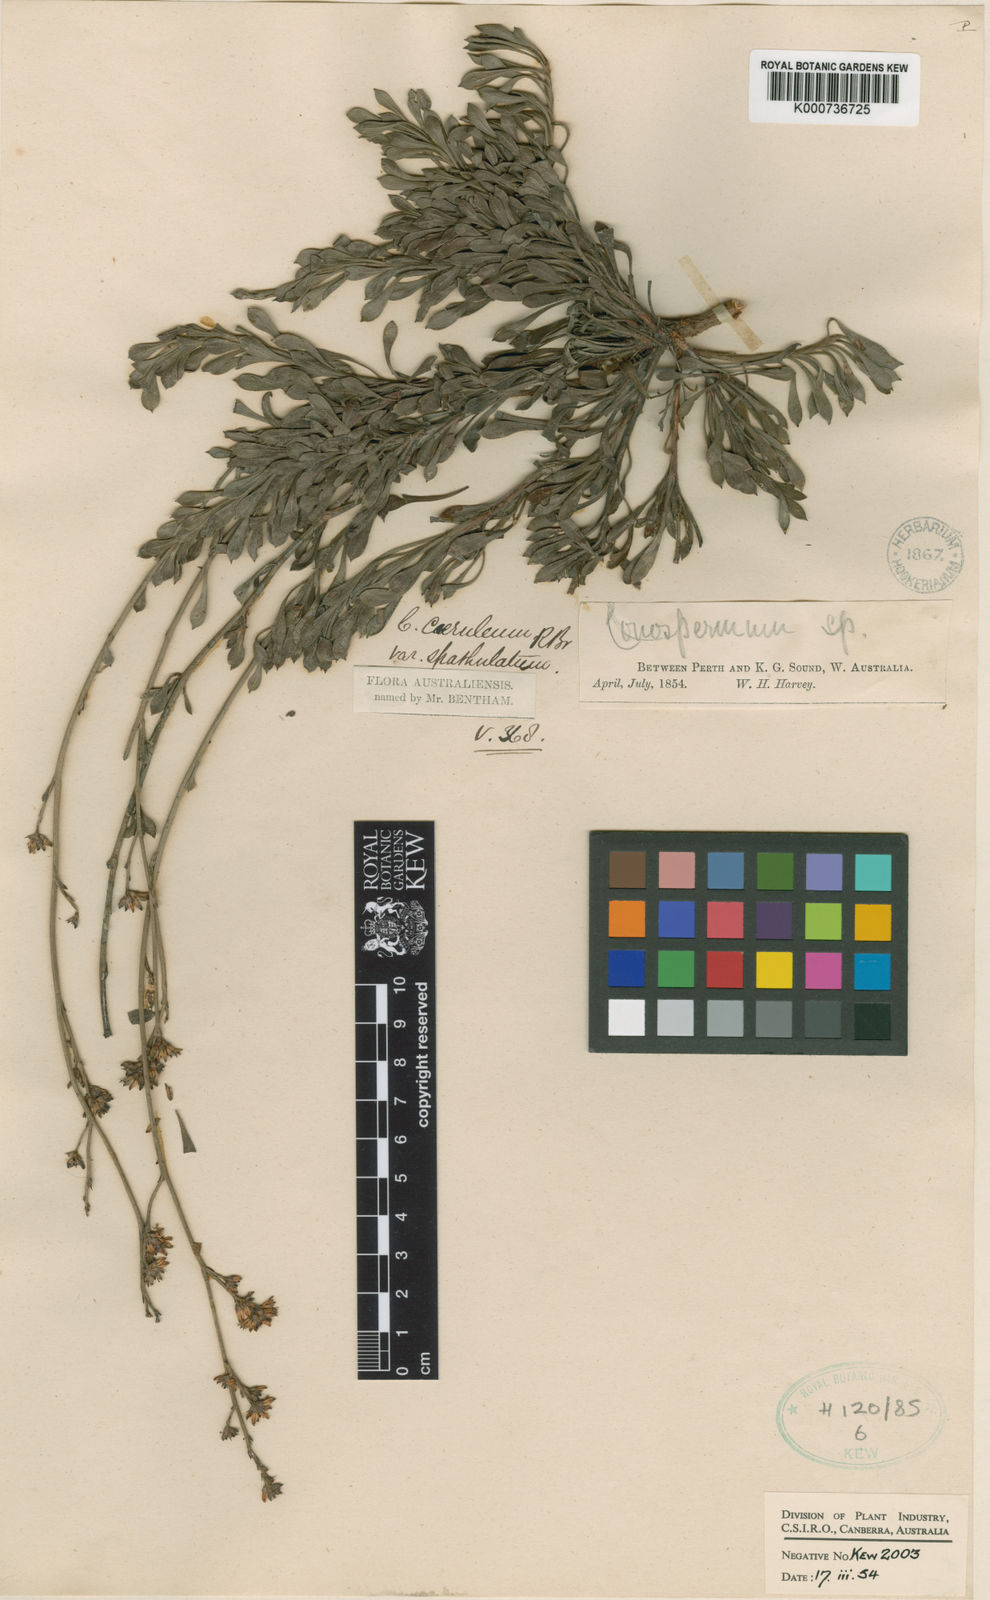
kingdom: Plantae
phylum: Tracheophyta
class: Magnoliopsida
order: Proteales
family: Proteaceae
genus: Conospermum
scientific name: Conospermum caeruleum
